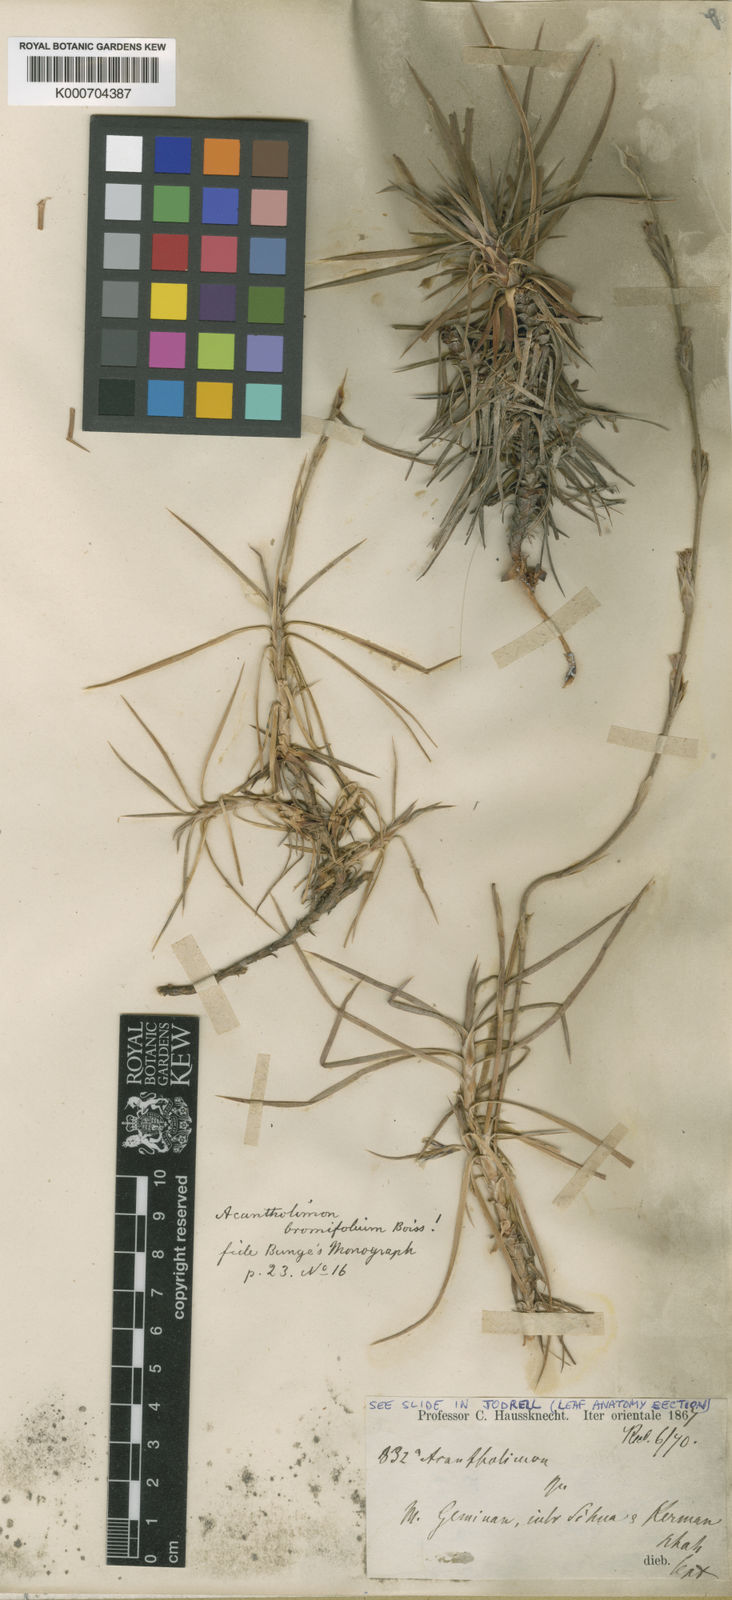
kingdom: Plantae
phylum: Tracheophyta
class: Magnoliopsida
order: Caryophyllales
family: Plumbaginaceae
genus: Acantholimon
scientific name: Acantholimon bromifolium
